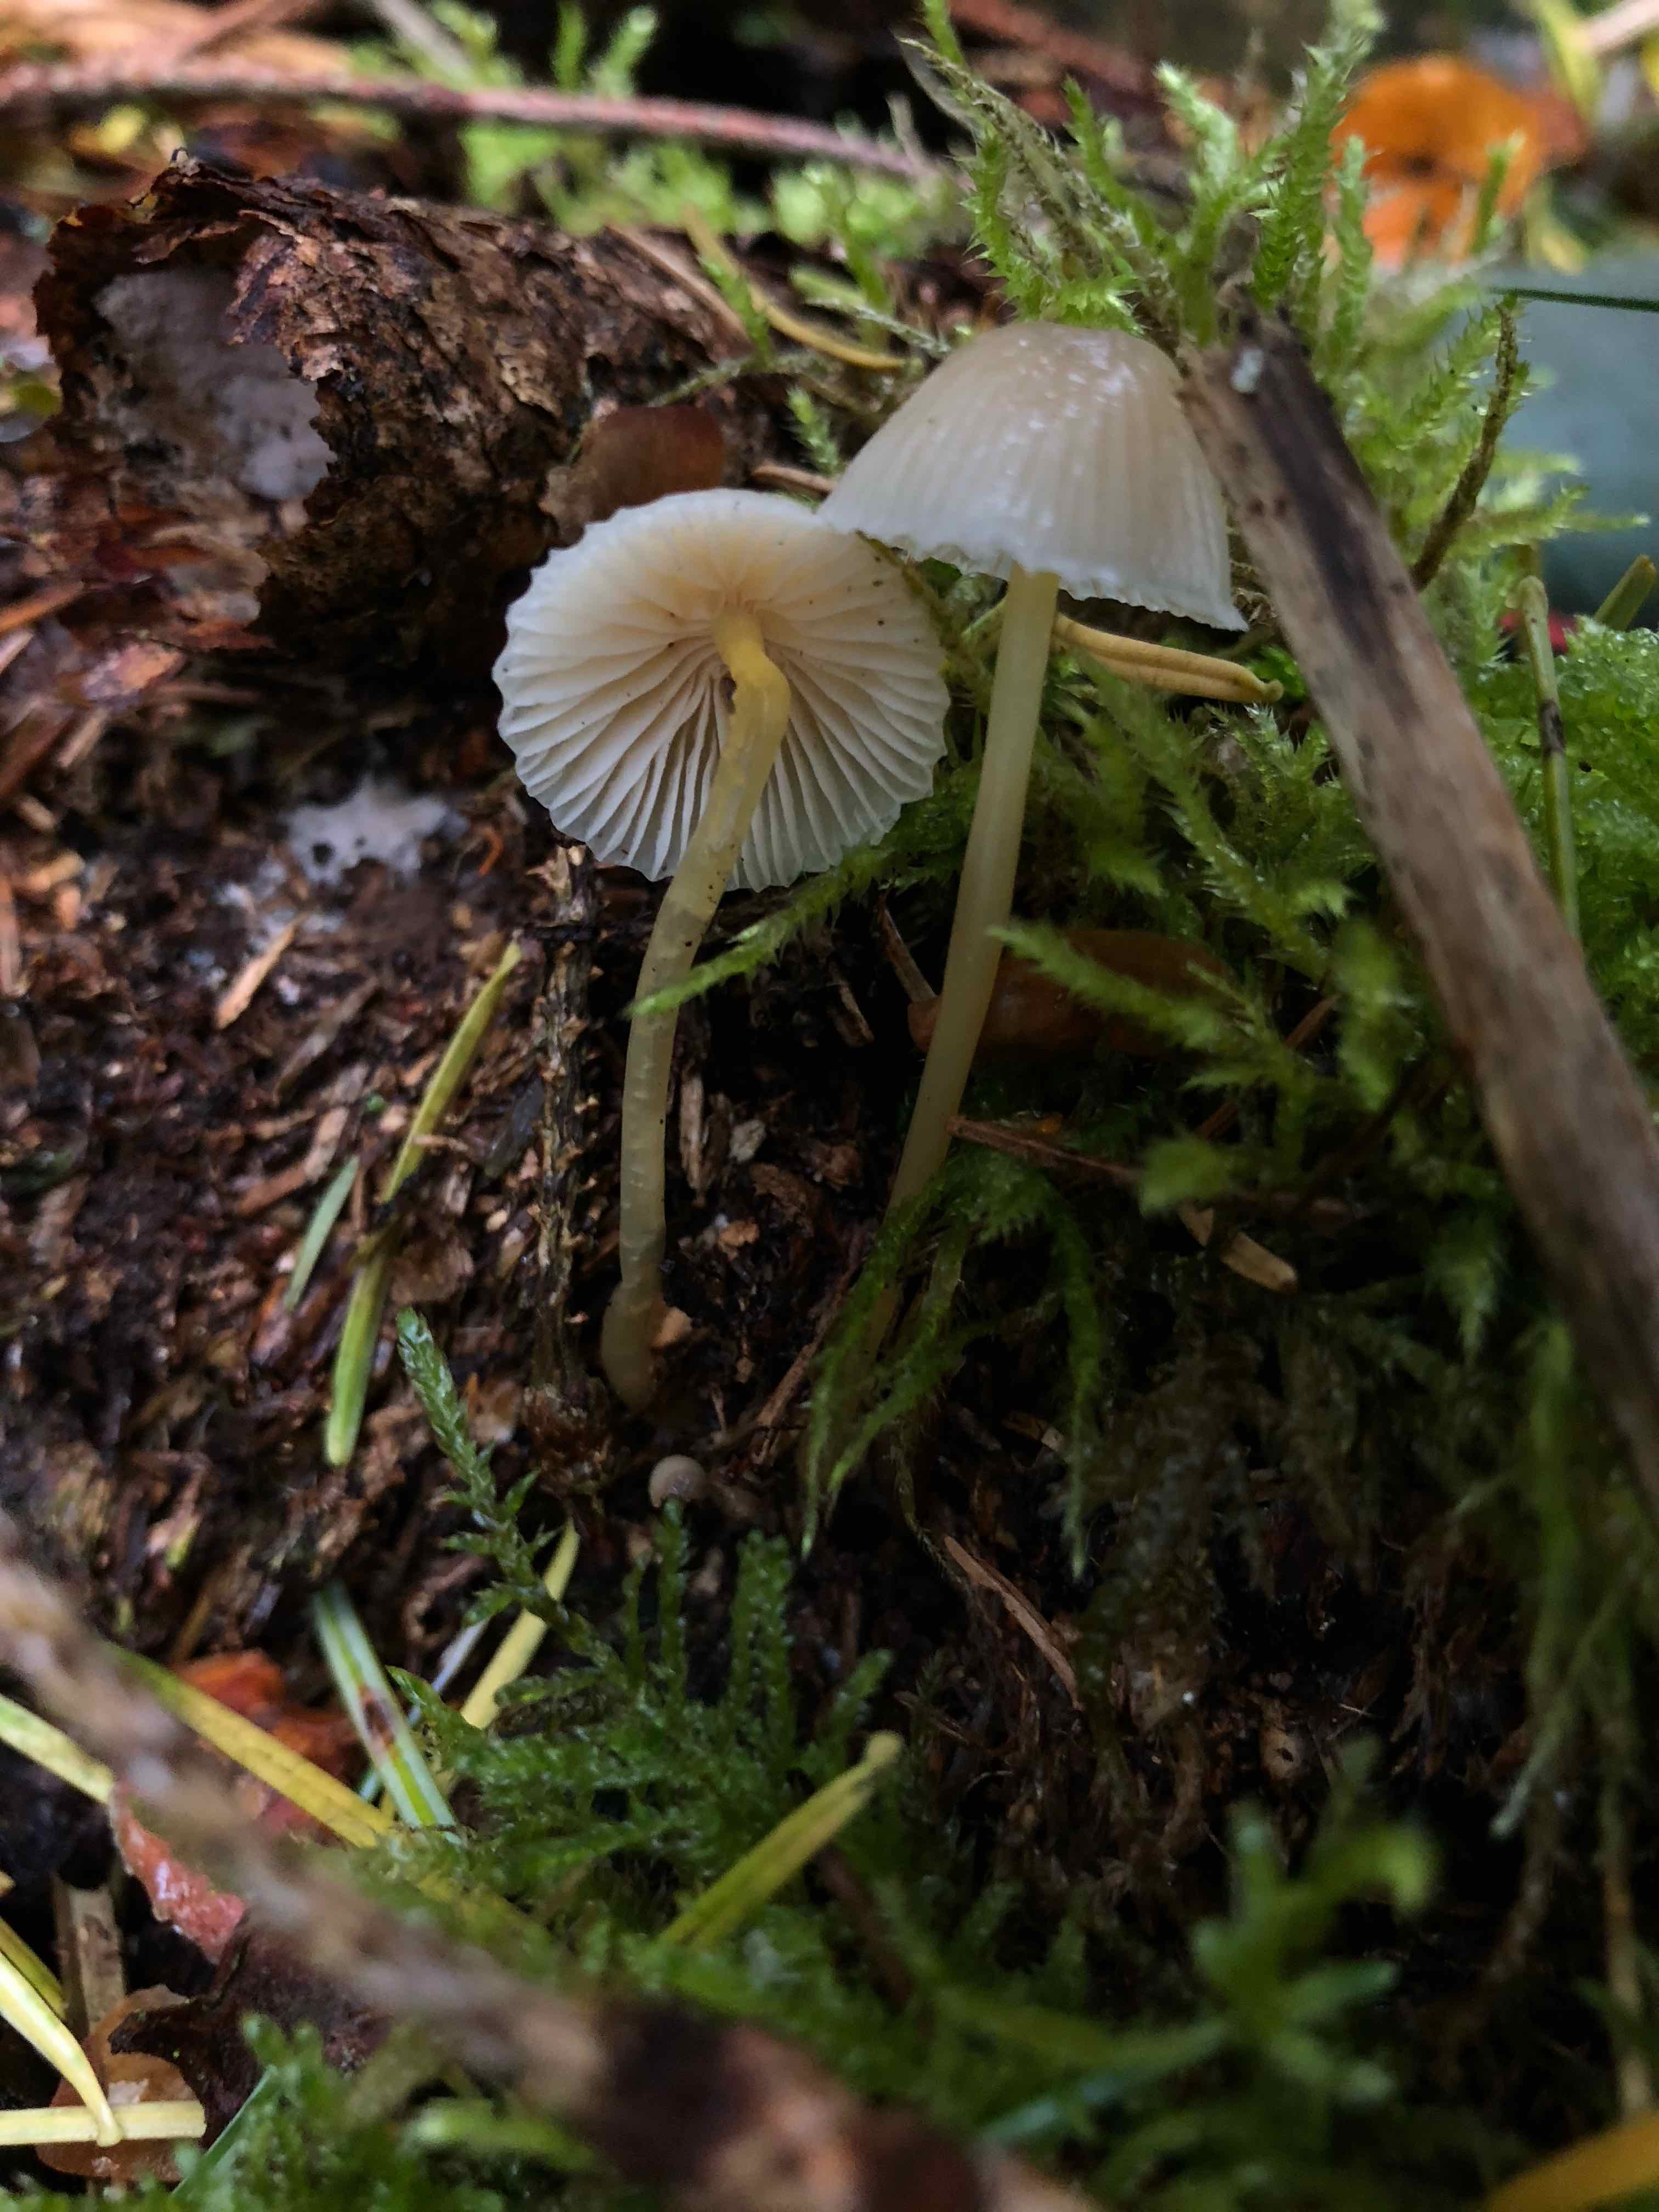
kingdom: Fungi
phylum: Basidiomycota
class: Agaricomycetes
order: Agaricales
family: Mycenaceae
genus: Mycena
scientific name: Mycena epipterygia
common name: gulstokket huesvamp
